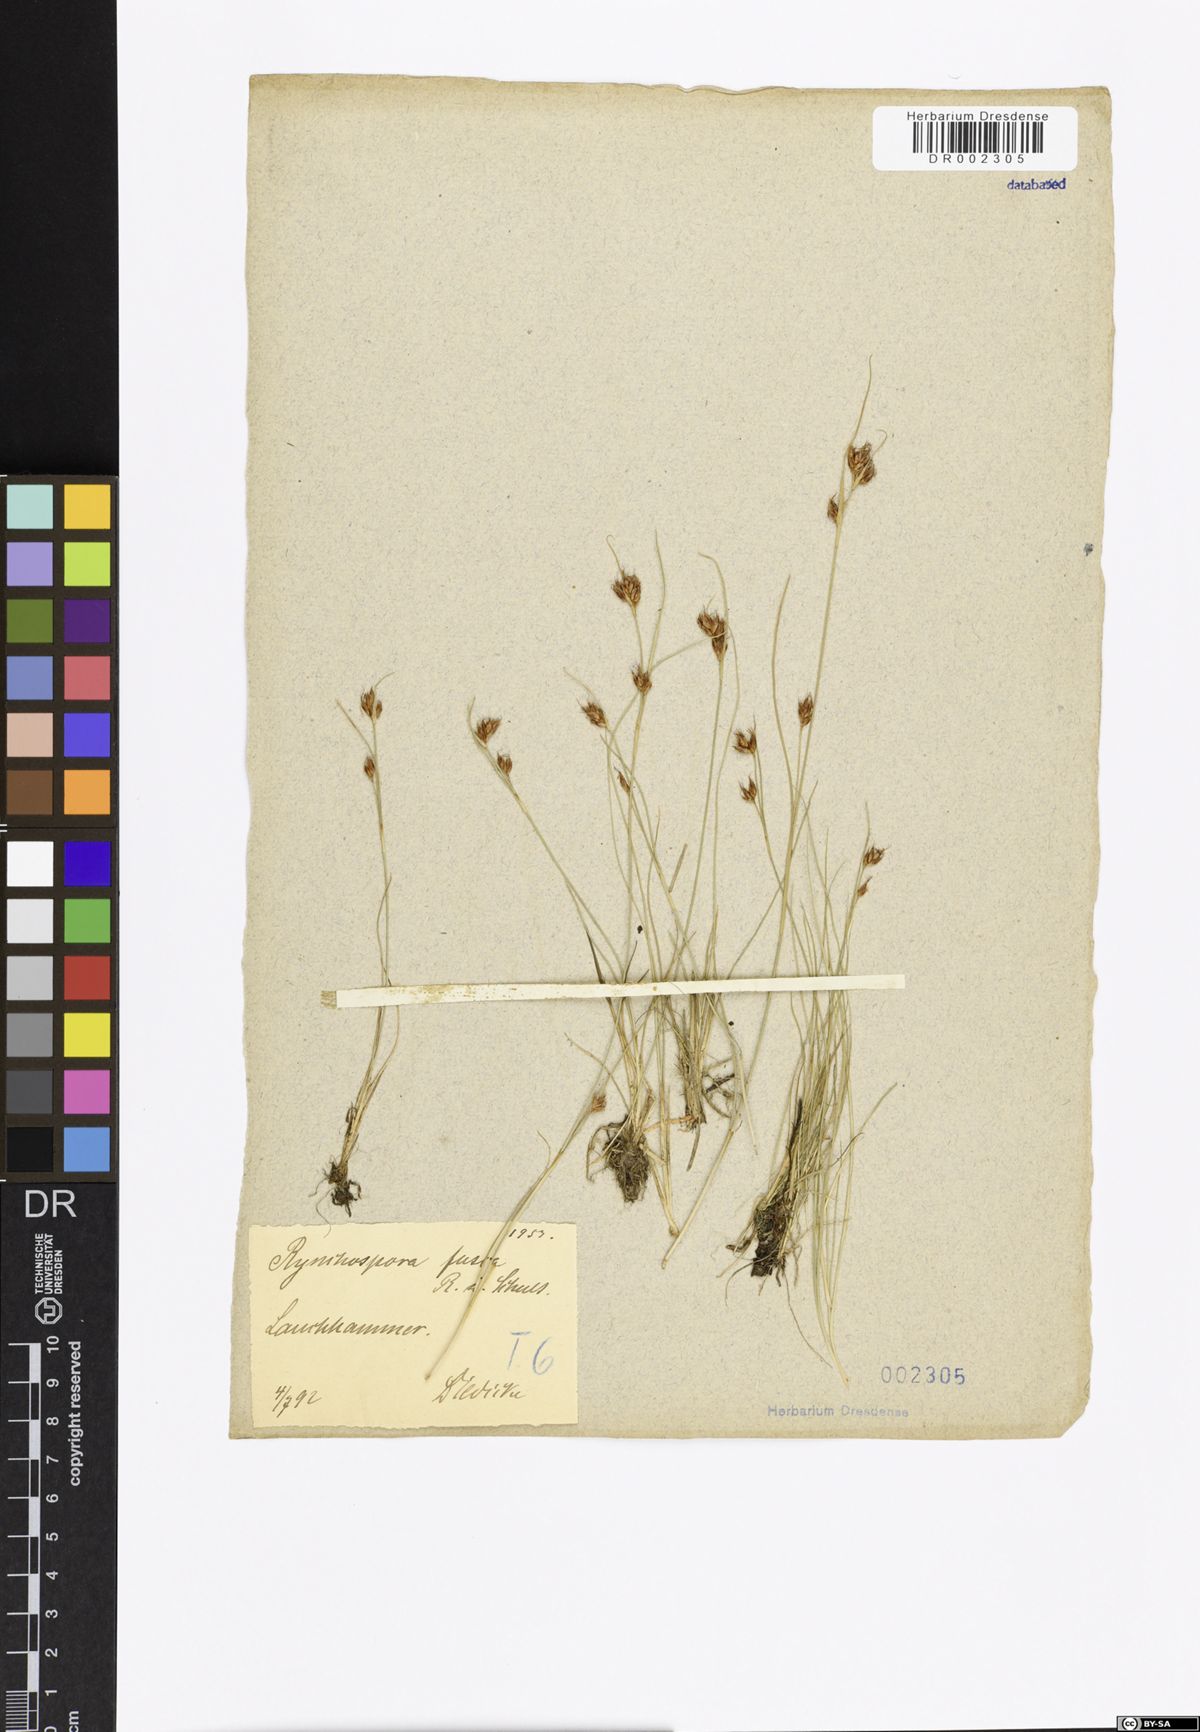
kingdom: Plantae
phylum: Tracheophyta
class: Liliopsida
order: Poales
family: Cyperaceae
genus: Rhynchospora
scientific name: Rhynchospora fusca
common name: Brown beak-sedge
